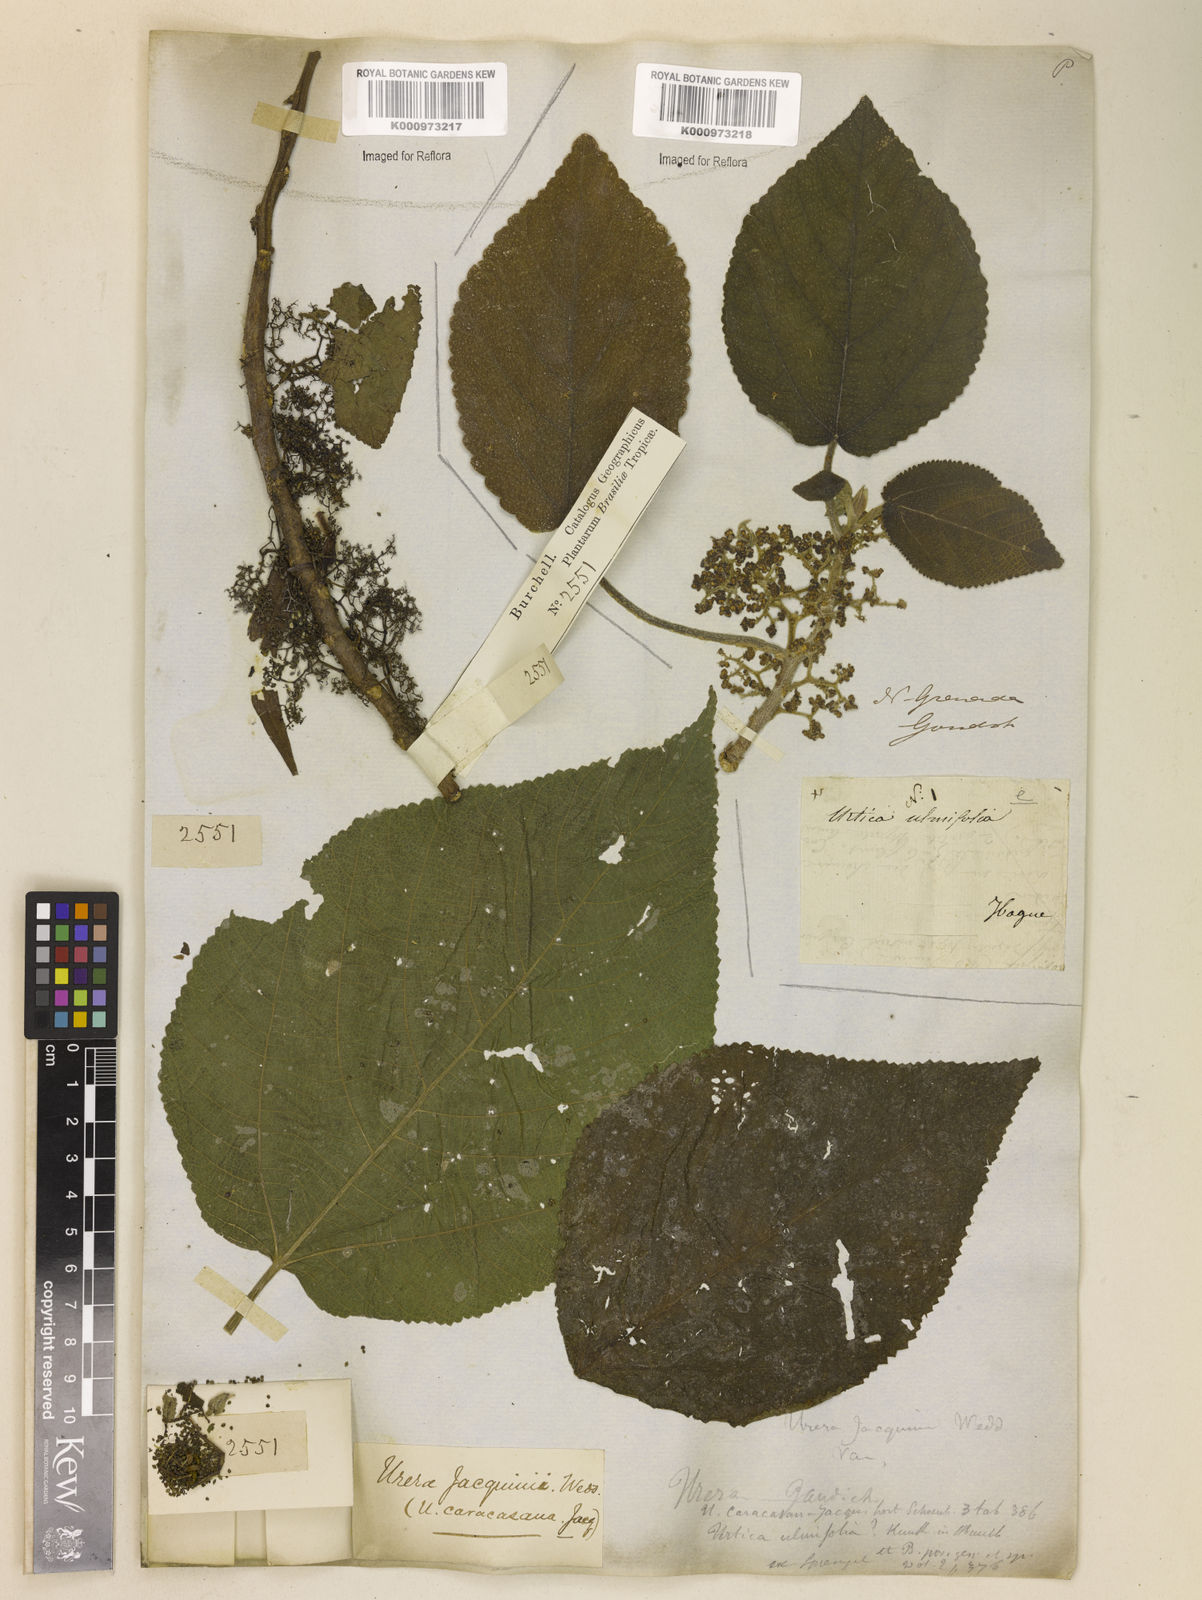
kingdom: Plantae
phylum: Tracheophyta
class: Magnoliopsida
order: Rosales
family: Urticaceae
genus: Urera
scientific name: Urera caracasana
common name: Flameberry
